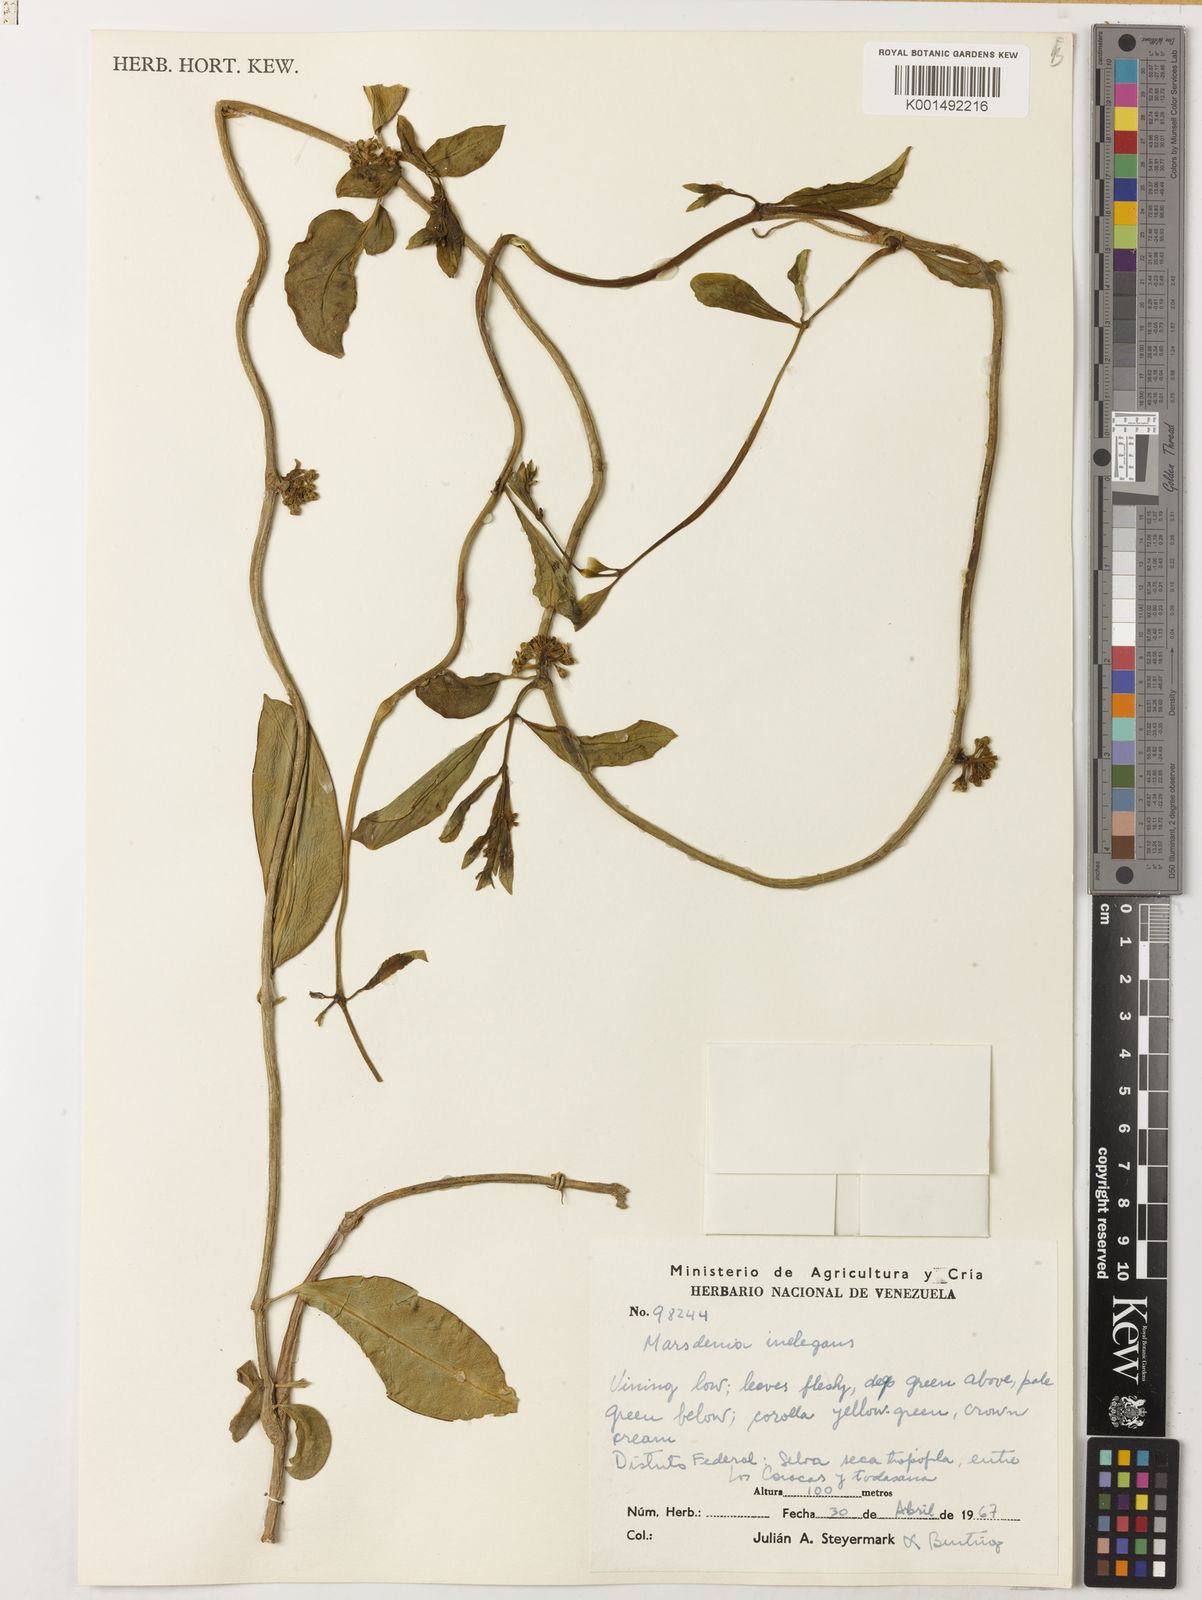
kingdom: Plantae
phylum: Tracheophyta
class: Magnoliopsida
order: Gentianales
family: Apocynaceae
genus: Ruehssia
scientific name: Ruehssia condensiflora
